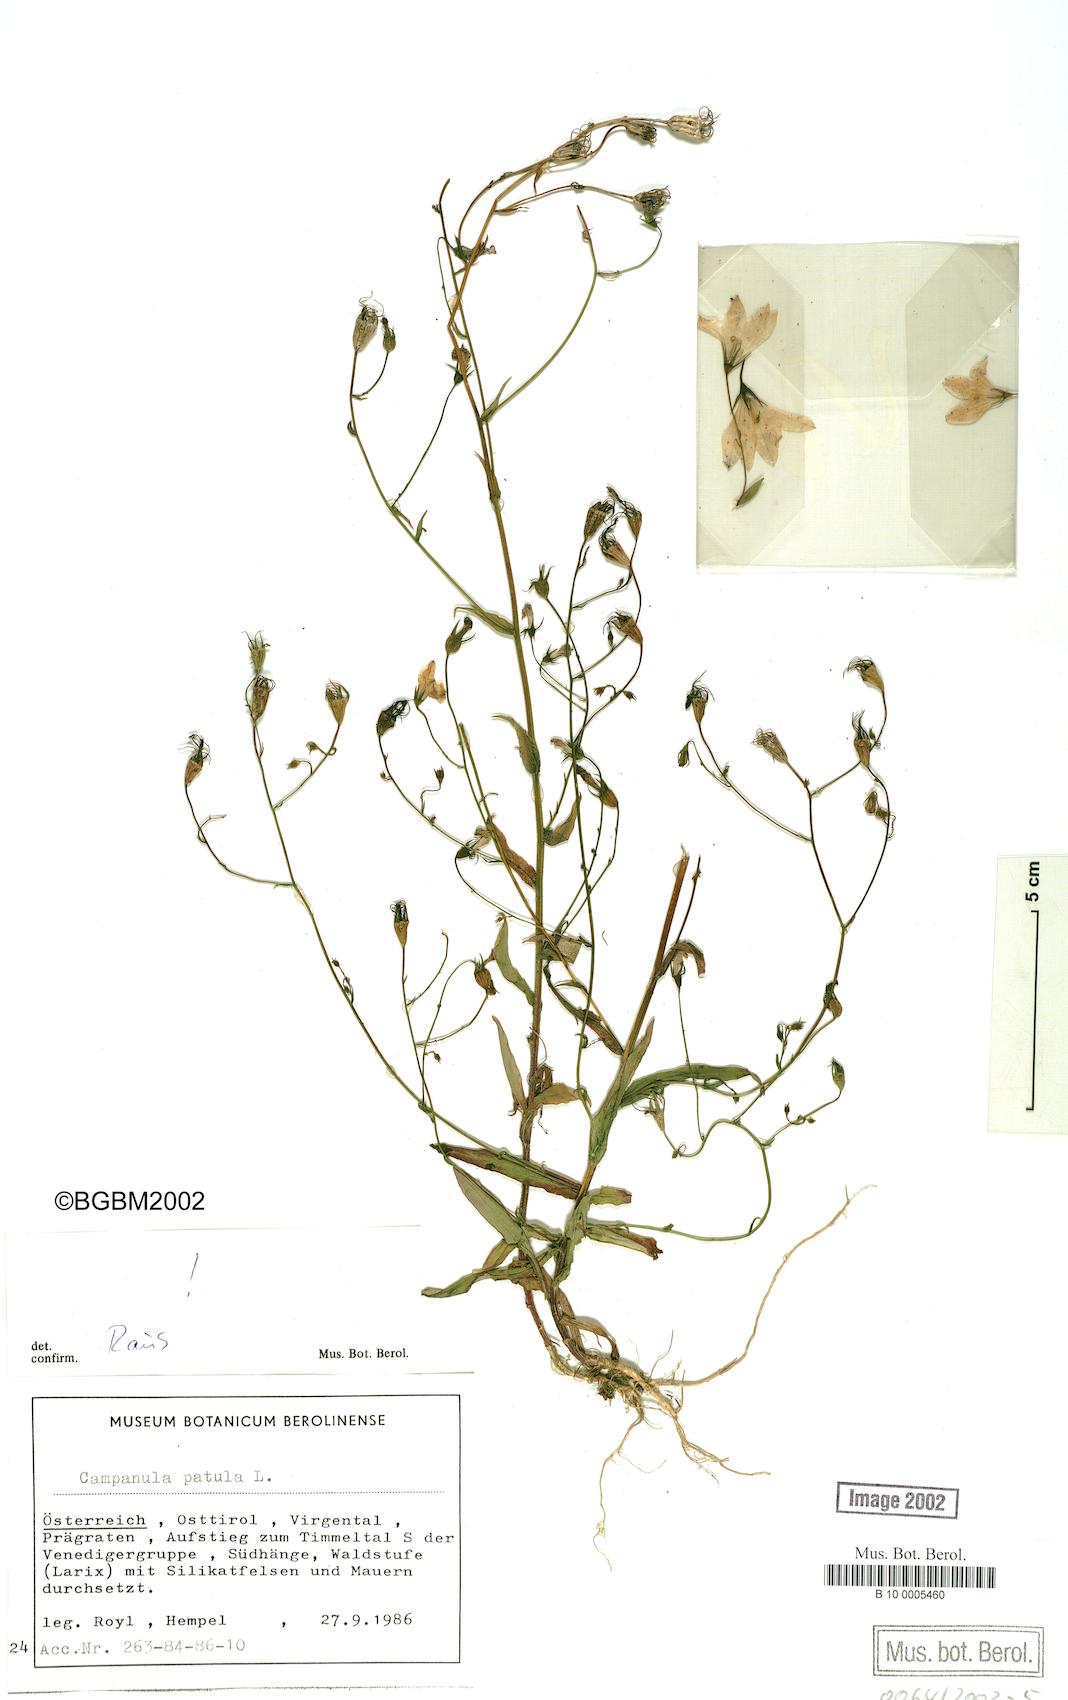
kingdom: Plantae
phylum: Tracheophyta
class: Magnoliopsida
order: Asterales
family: Campanulaceae
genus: Campanula
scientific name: Campanula patula
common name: Spreading bellflower
